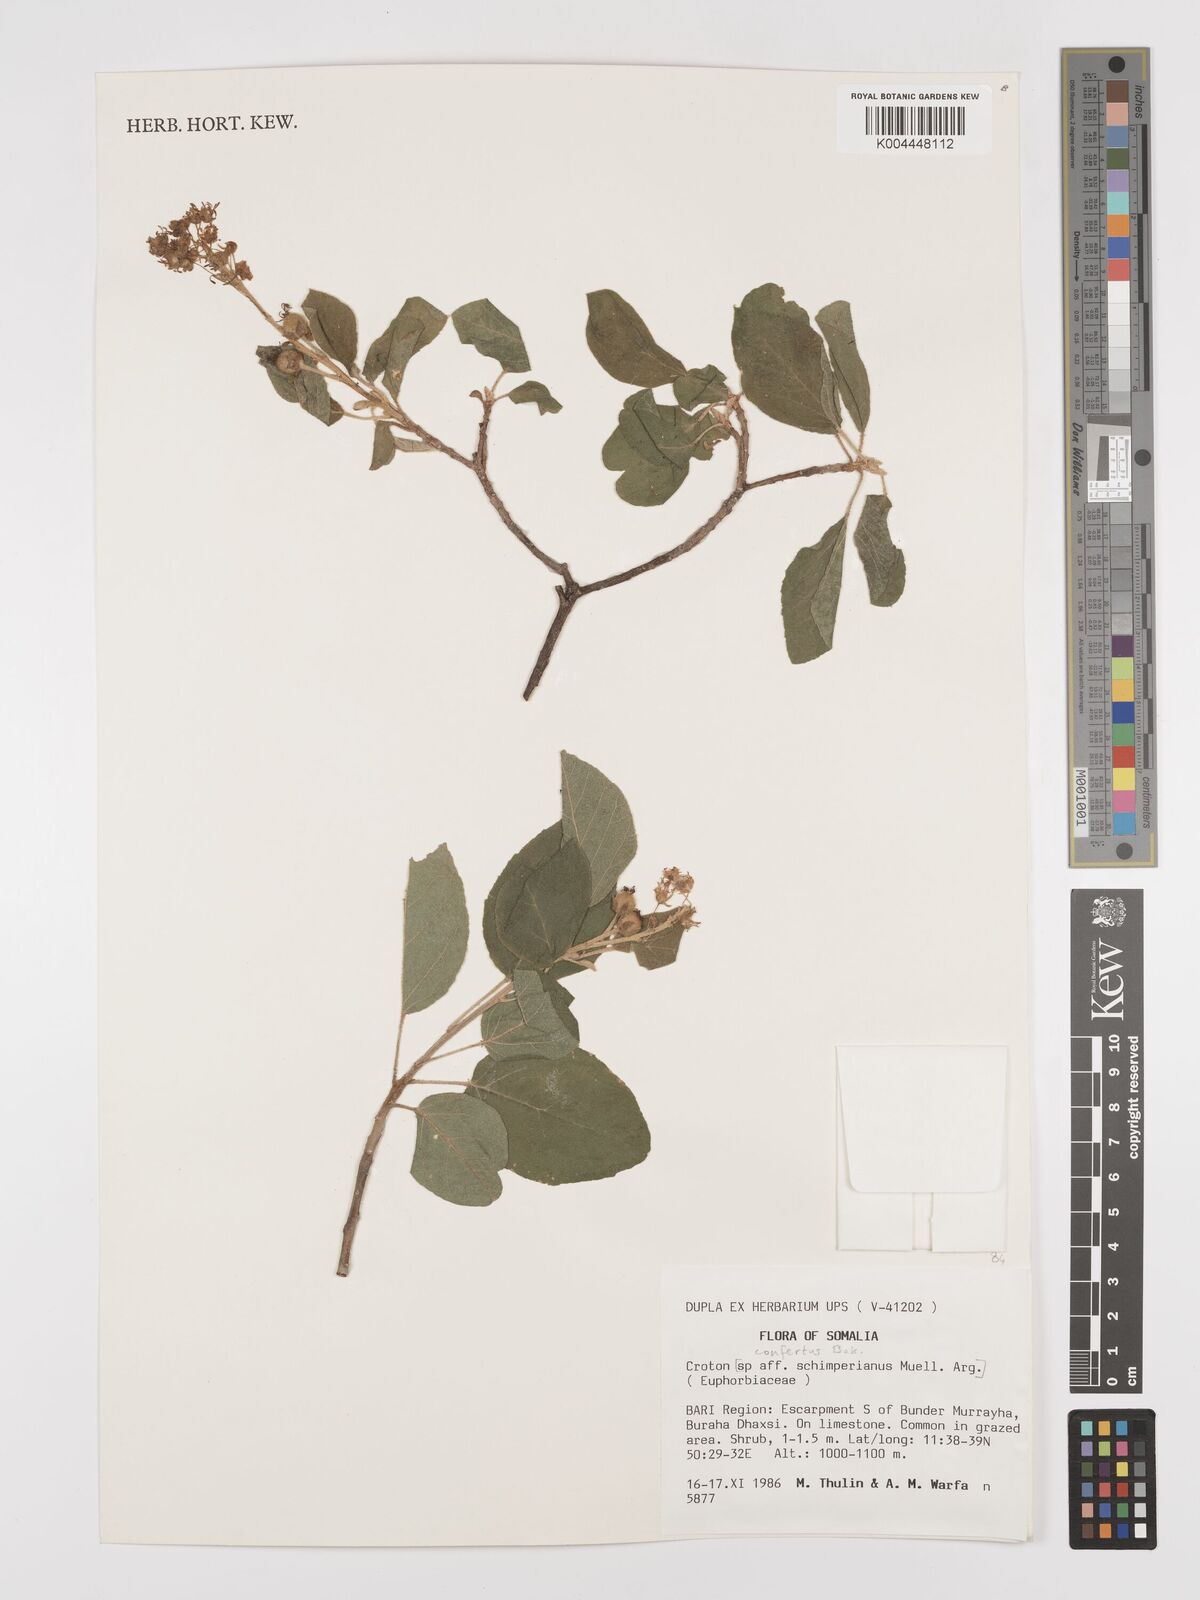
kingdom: Plantae
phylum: Tracheophyta
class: Magnoliopsida
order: Malpighiales
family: Euphorbiaceae
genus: Croton
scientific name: Croton confertus
